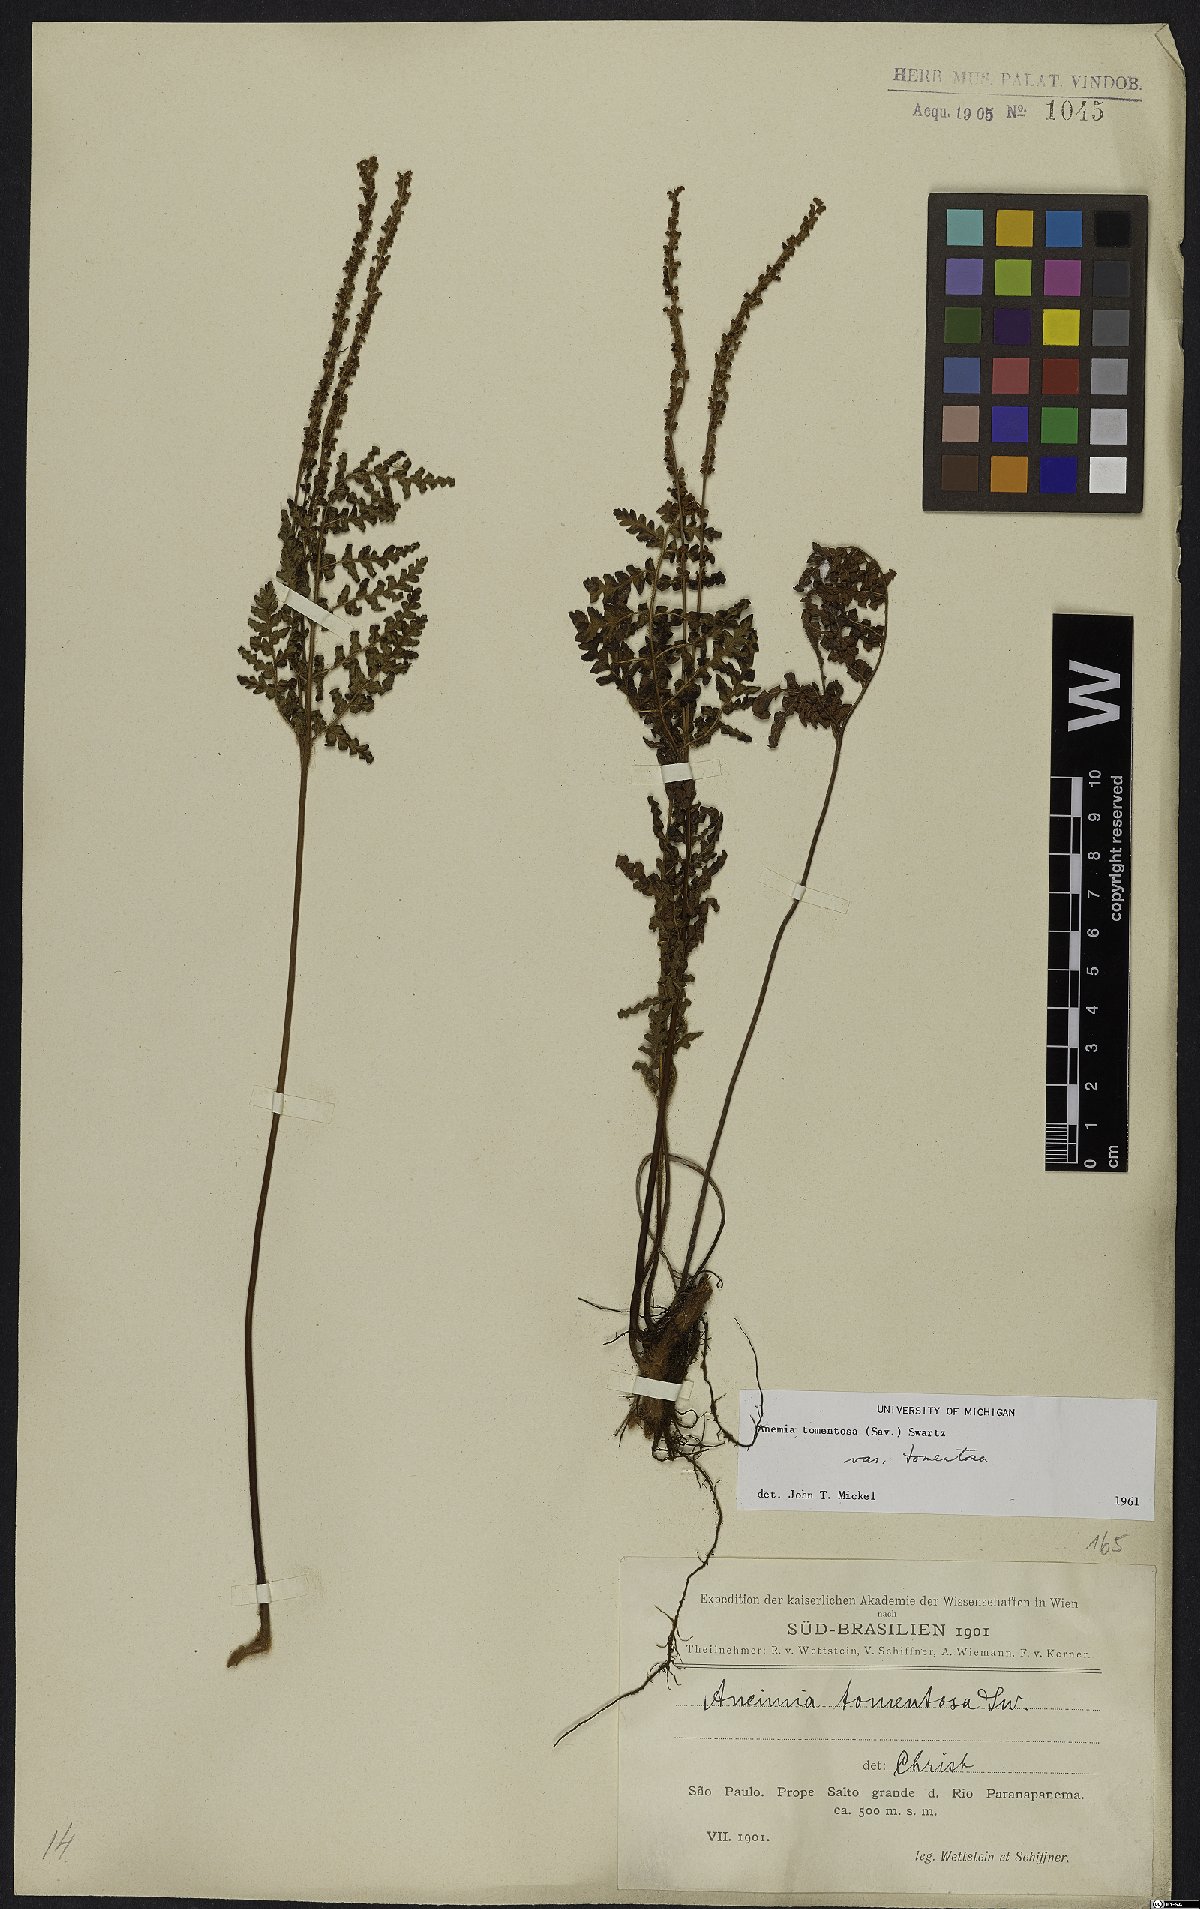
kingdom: Plantae
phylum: Tracheophyta
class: Polypodiopsida
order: Schizaeales
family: Anemiaceae
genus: Anemia
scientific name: Anemia tomentosa
